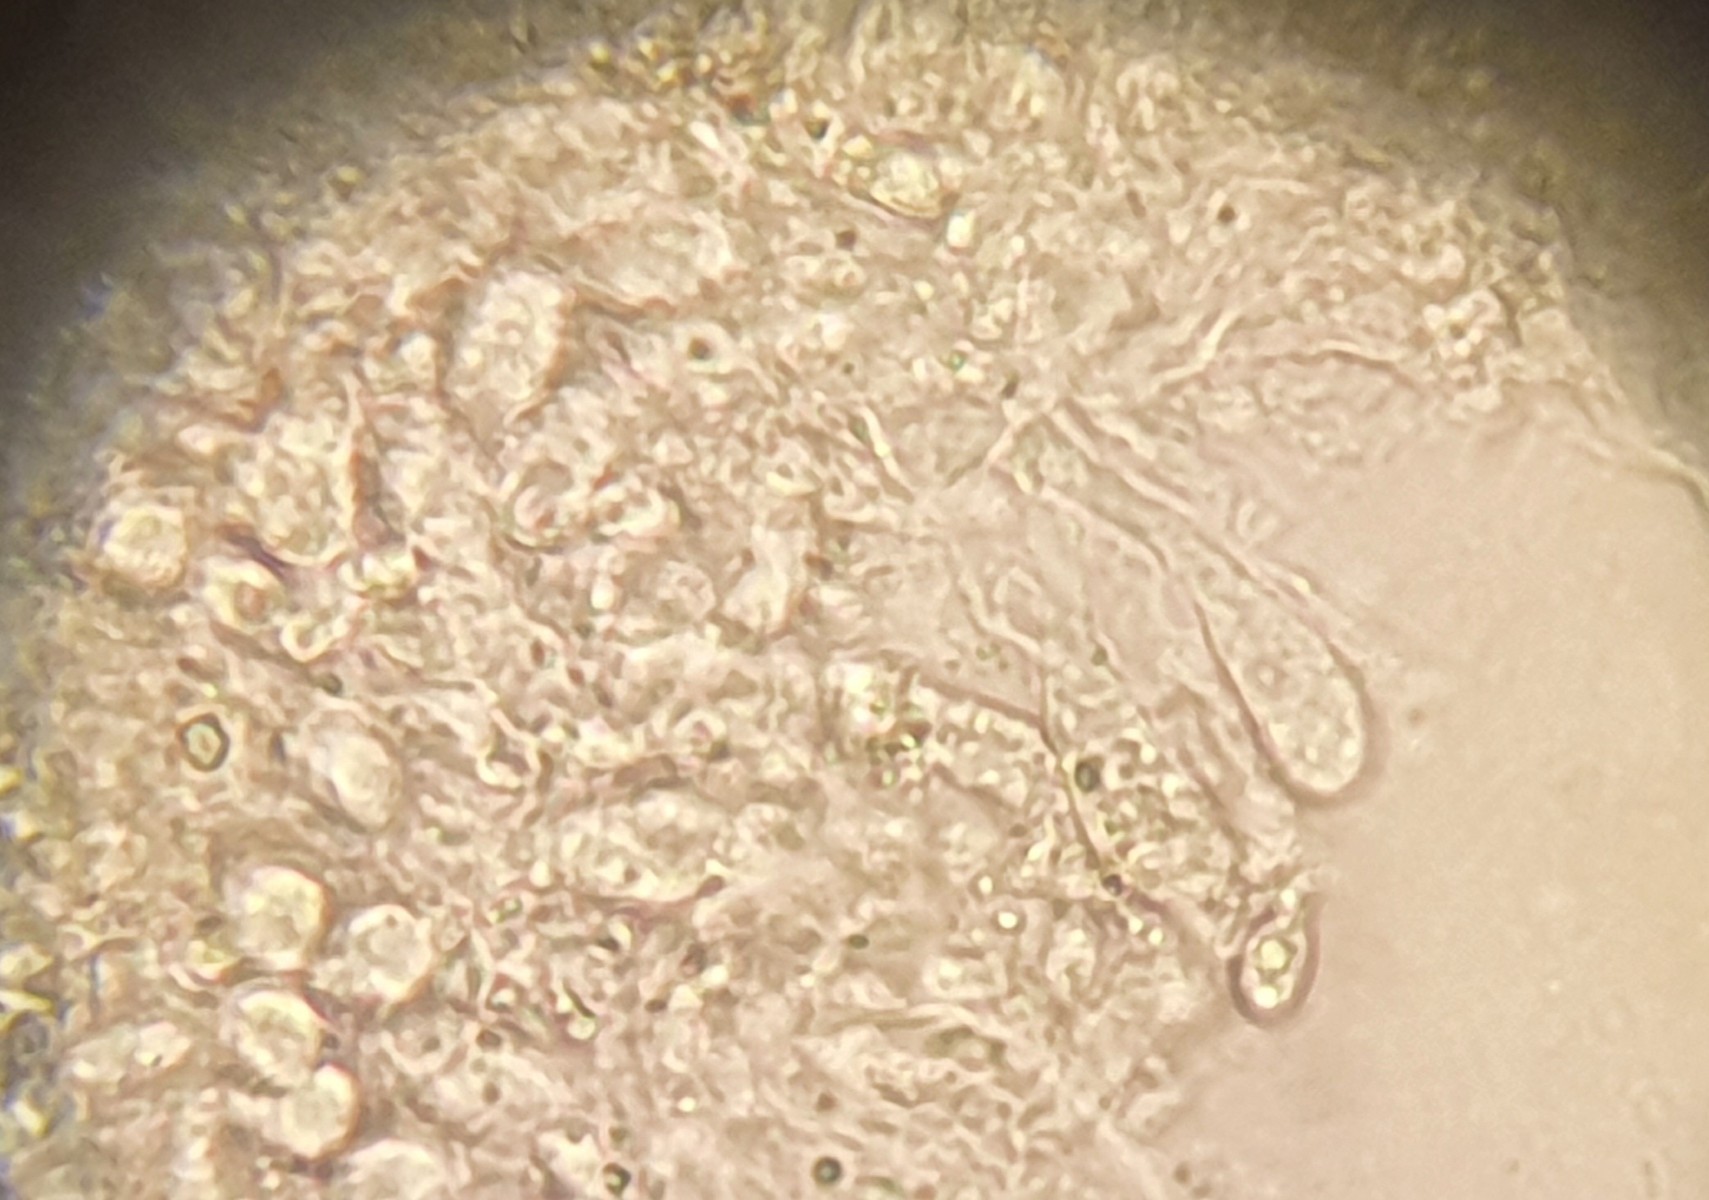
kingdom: Fungi
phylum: Basidiomycota
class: Agaricomycetes
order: Agaricales
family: Mycenaceae
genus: Mycena
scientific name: Mycena
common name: huesvamp
